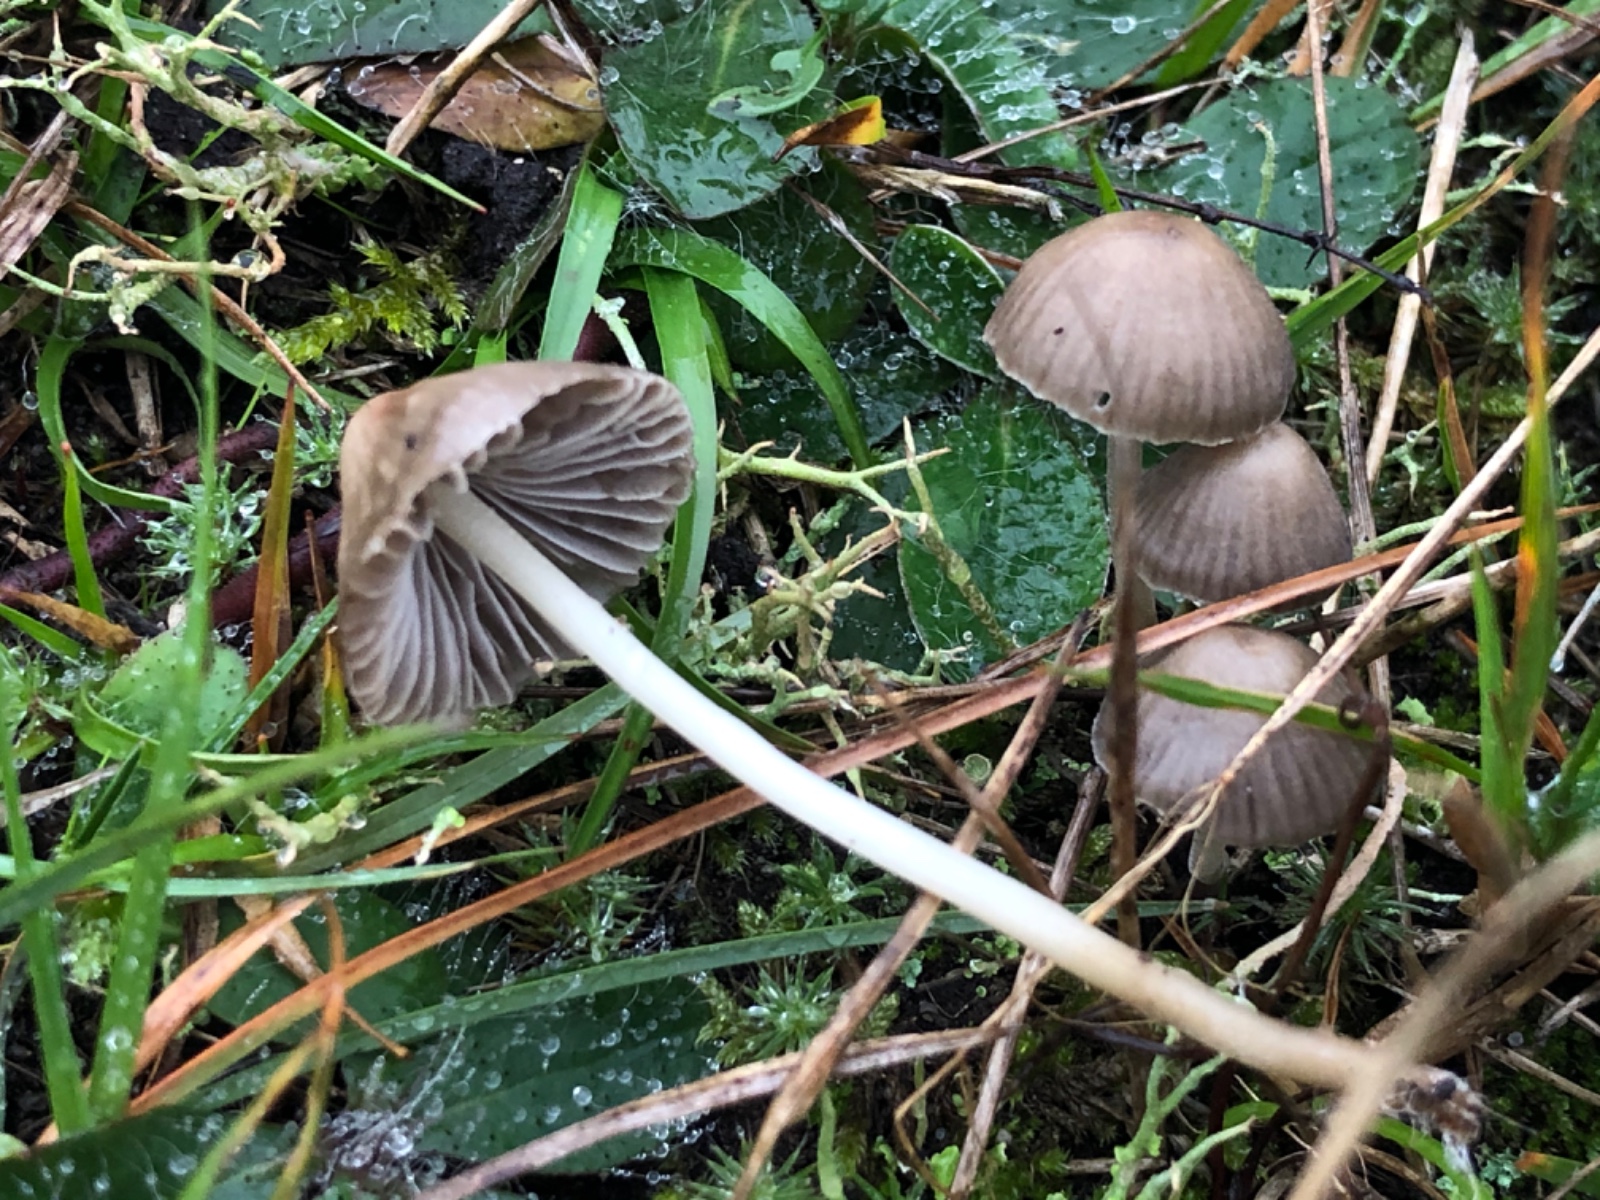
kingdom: Fungi
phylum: Basidiomycota
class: Agaricomycetes
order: Agaricales
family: Mycenaceae
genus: Mycena
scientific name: Mycena
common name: huesvamp
